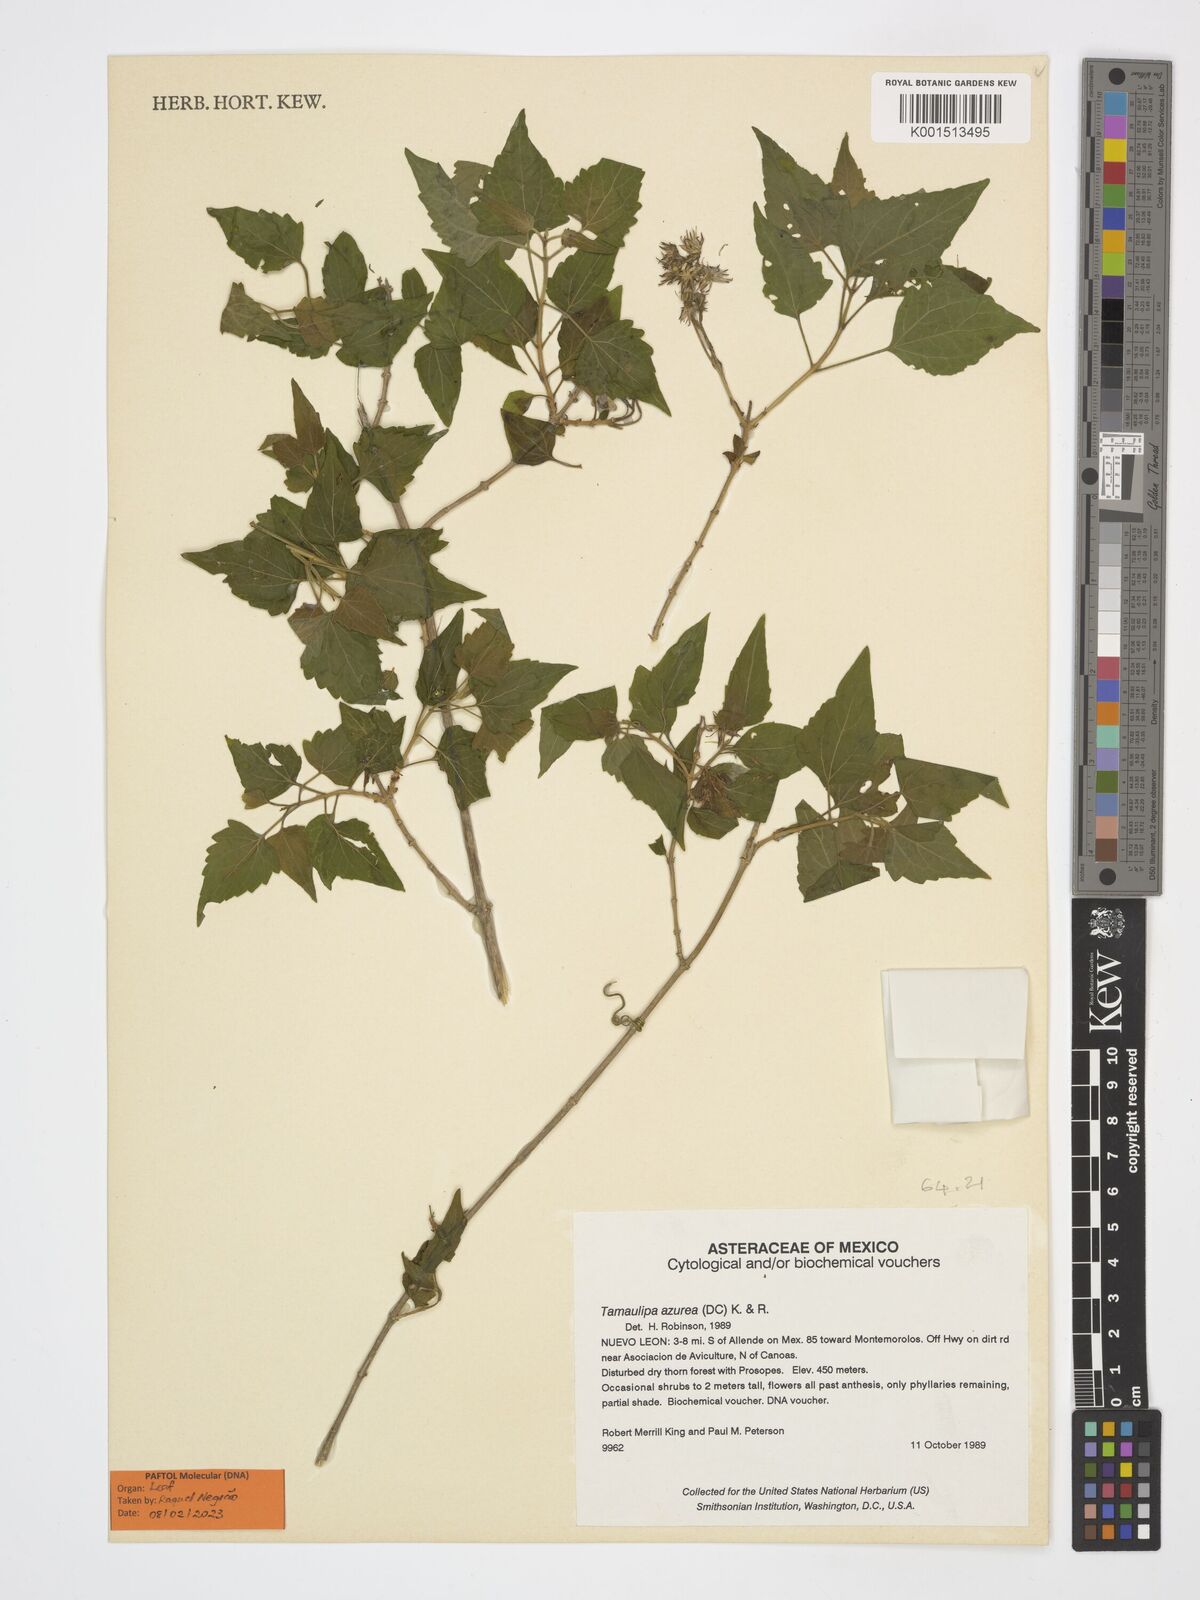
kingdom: Plantae
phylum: Tracheophyta
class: Magnoliopsida
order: Asterales
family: Asteraceae
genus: Tamaulipa
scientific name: Tamaulipa azurea
